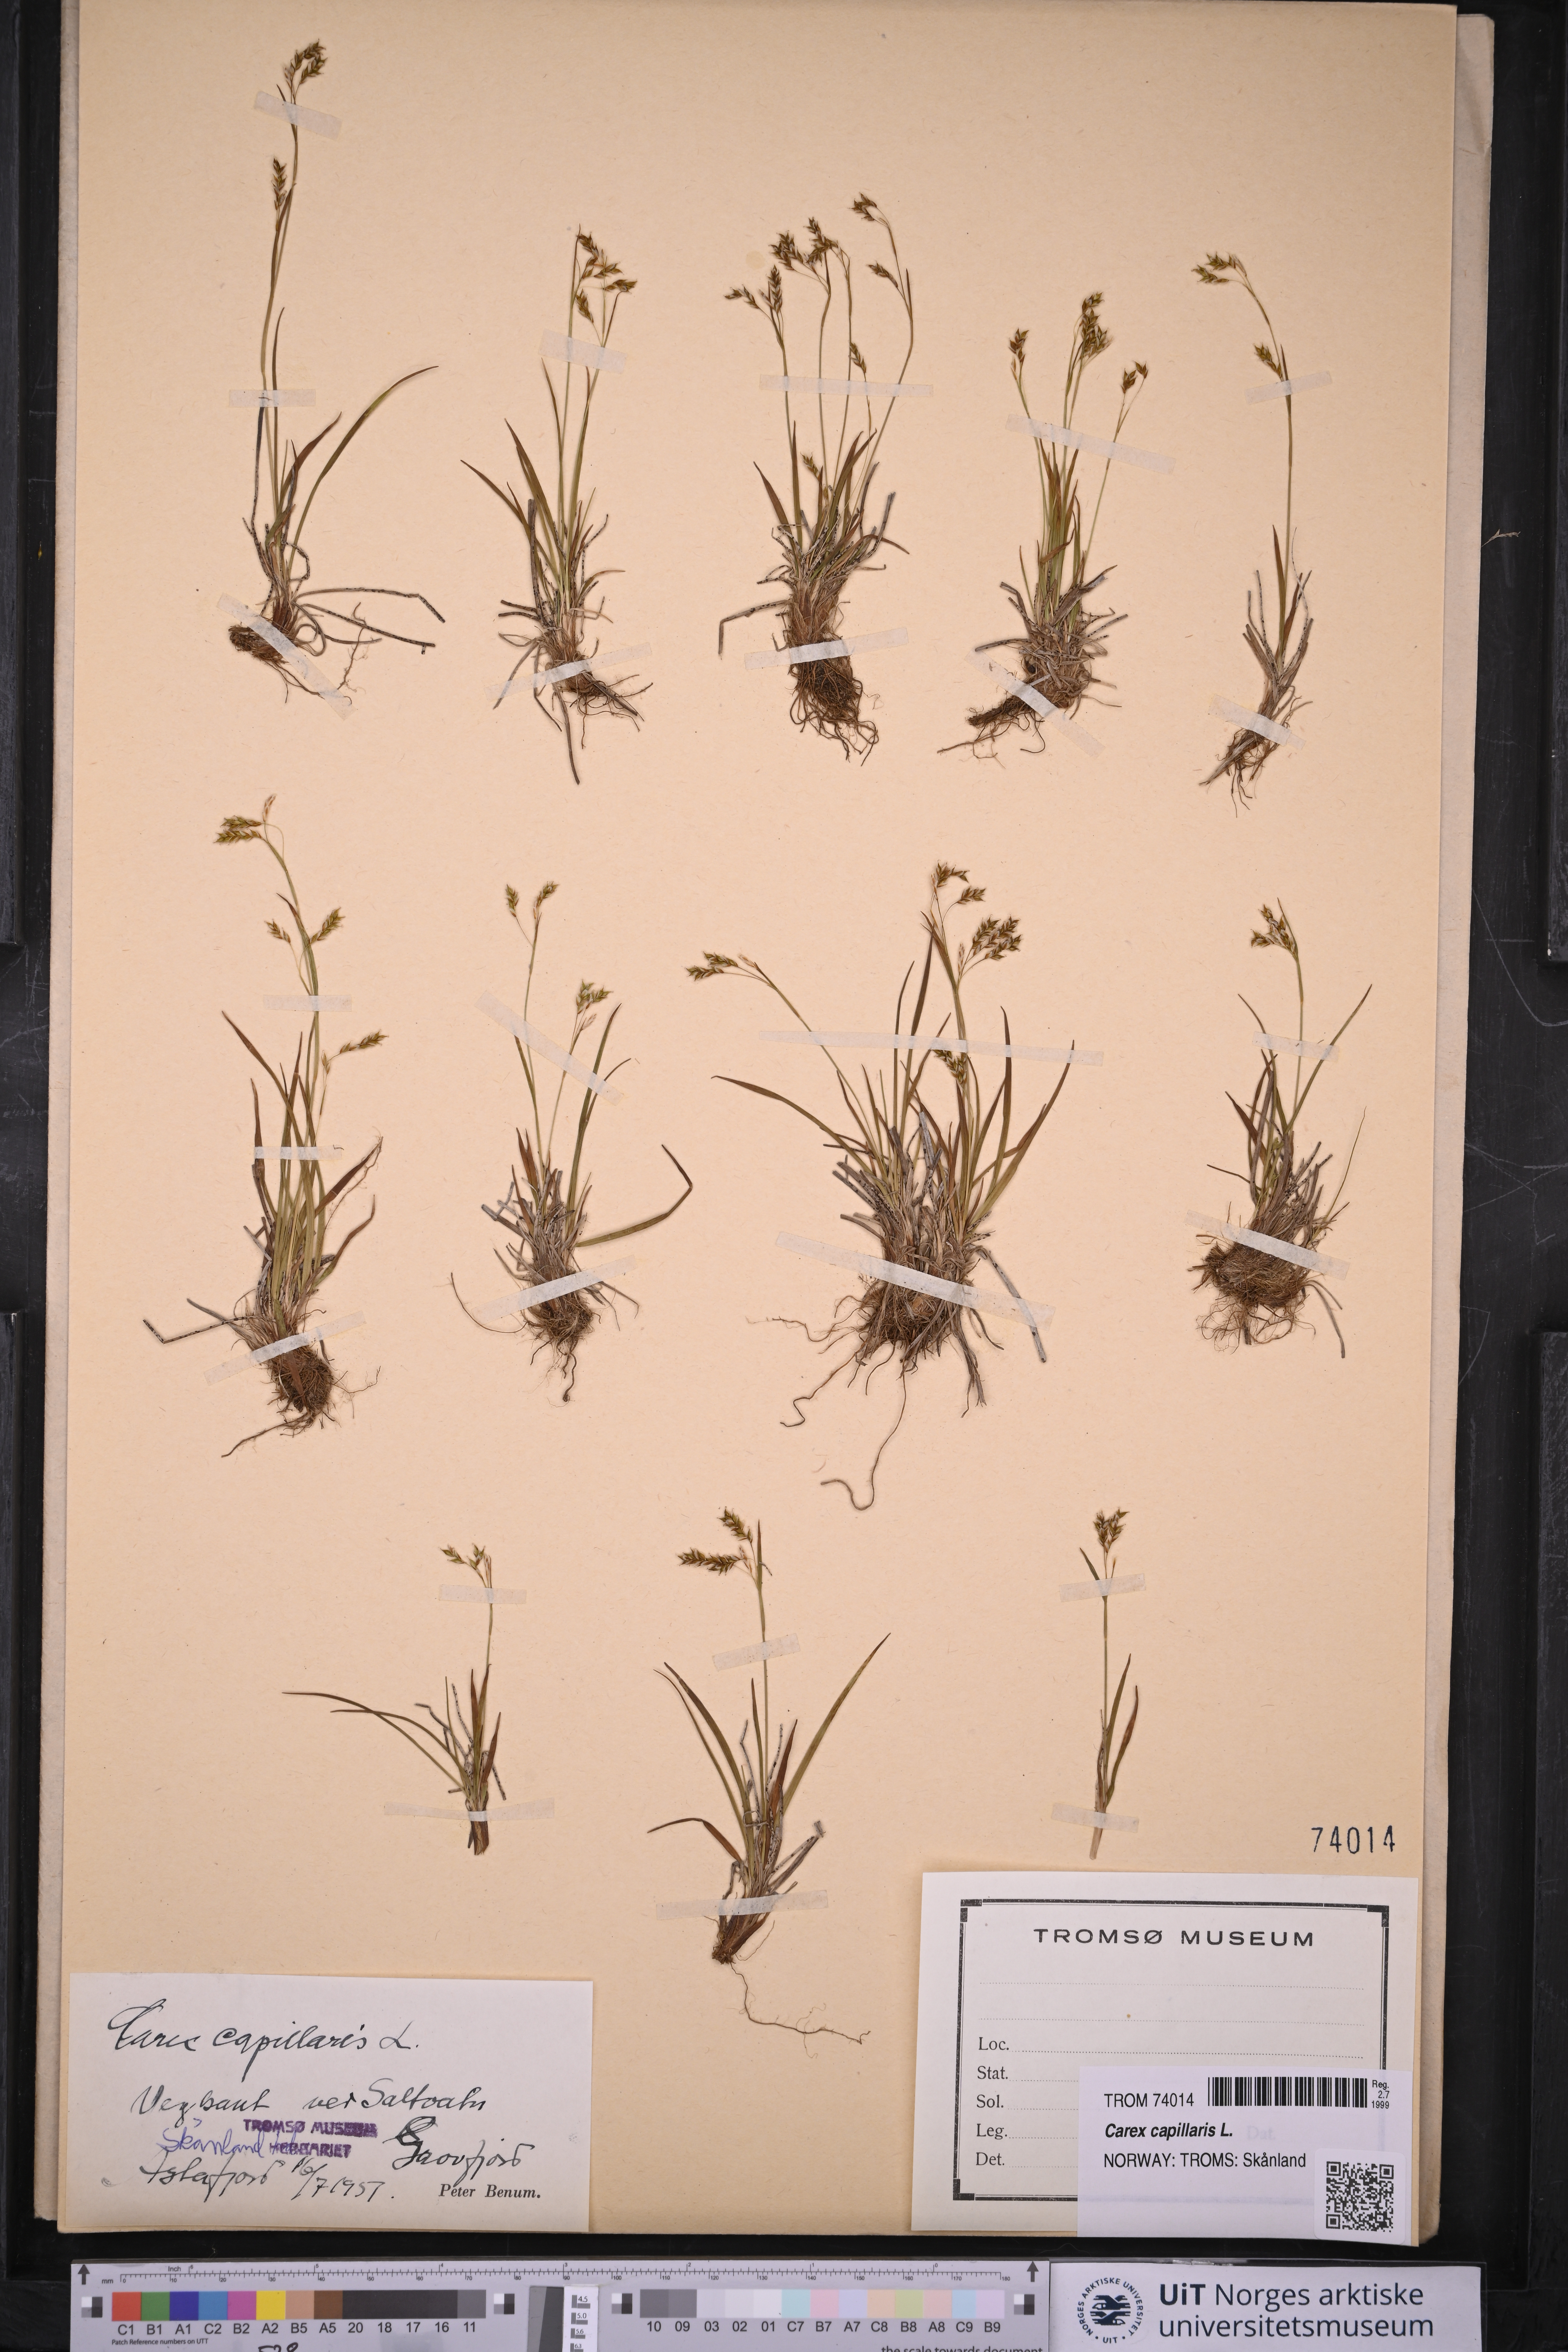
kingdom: Plantae
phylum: Tracheophyta
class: Liliopsida
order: Poales
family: Cyperaceae
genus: Carex
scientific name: Carex capillaris
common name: Hair sedge
